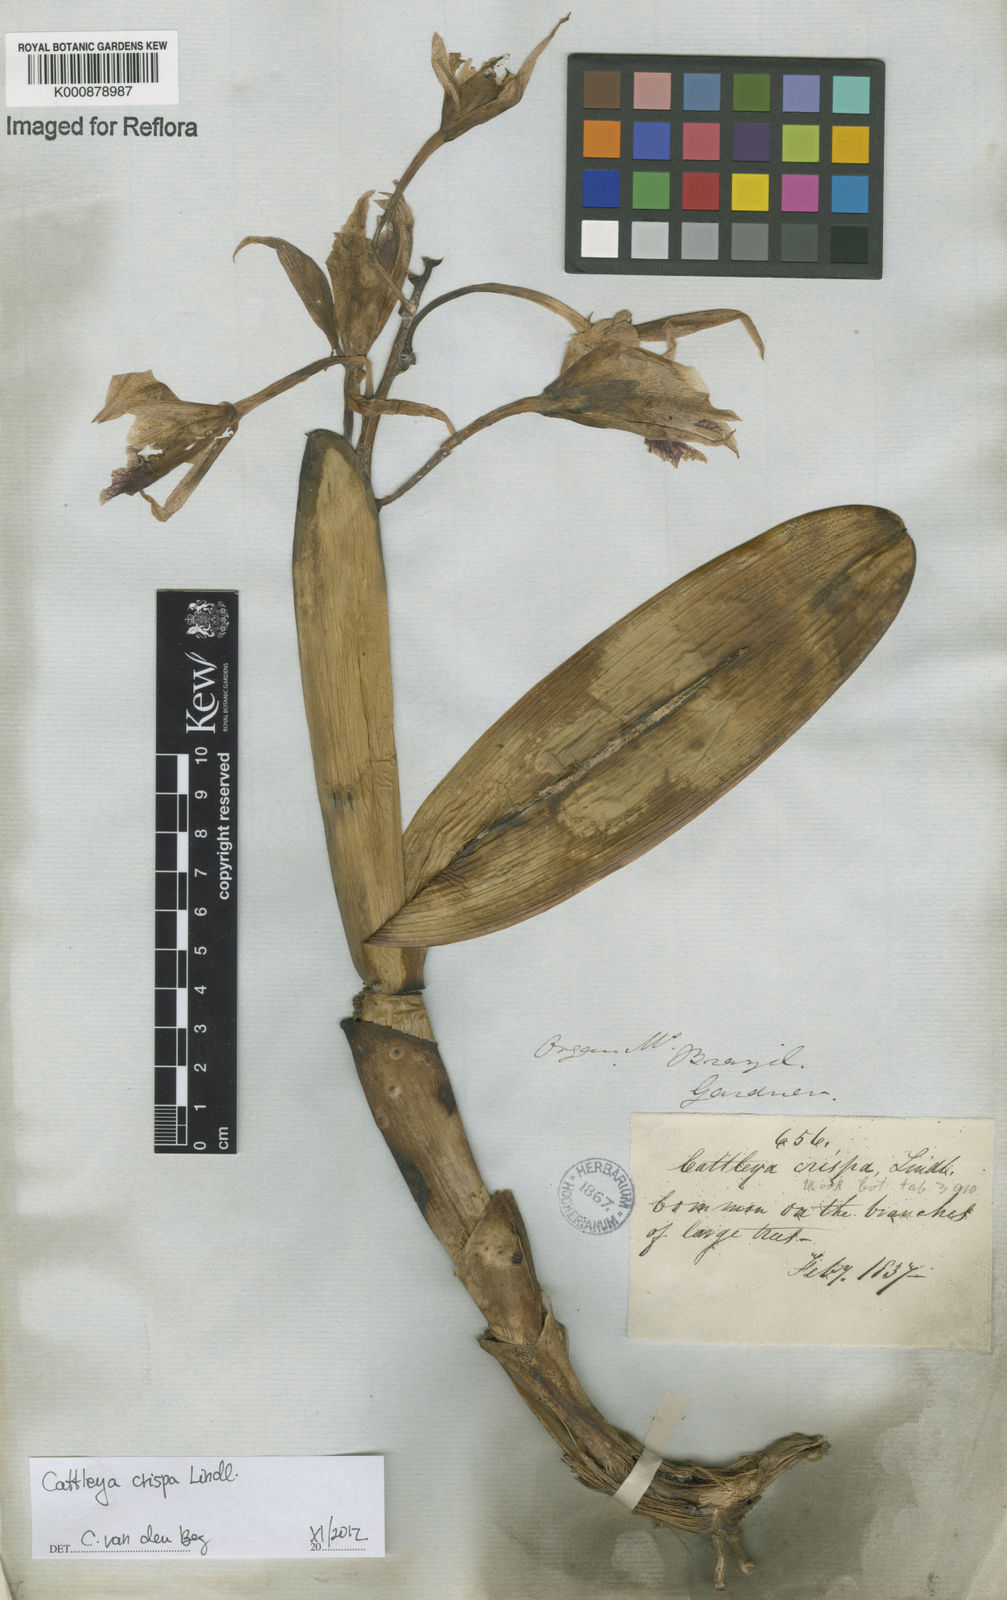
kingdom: Plantae
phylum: Tracheophyta
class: Liliopsida
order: Asparagales
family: Orchidaceae
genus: Cattleya
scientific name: Cattleya crispata
